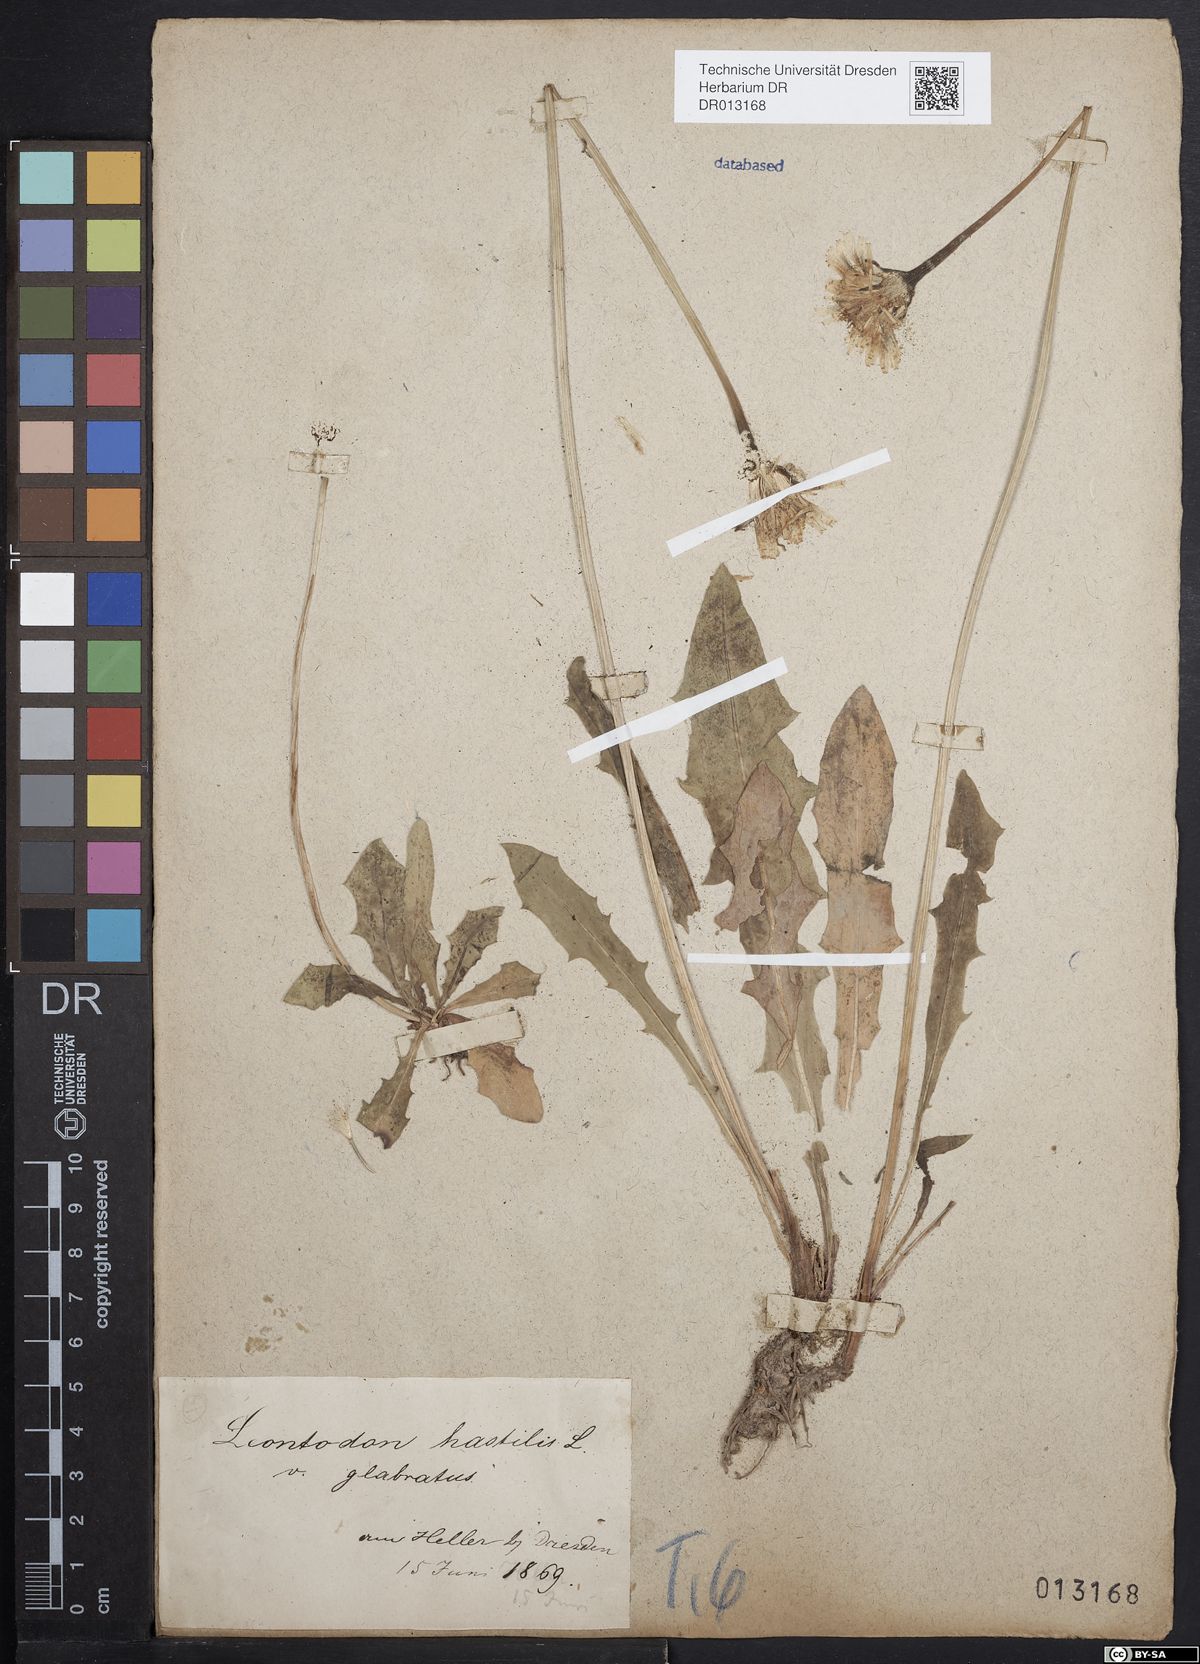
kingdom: Plantae
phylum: Tracheophyta
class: Magnoliopsida
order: Asterales
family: Asteraceae
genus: Leontodon
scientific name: Leontodon hispidus
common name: Rough hawkbit
